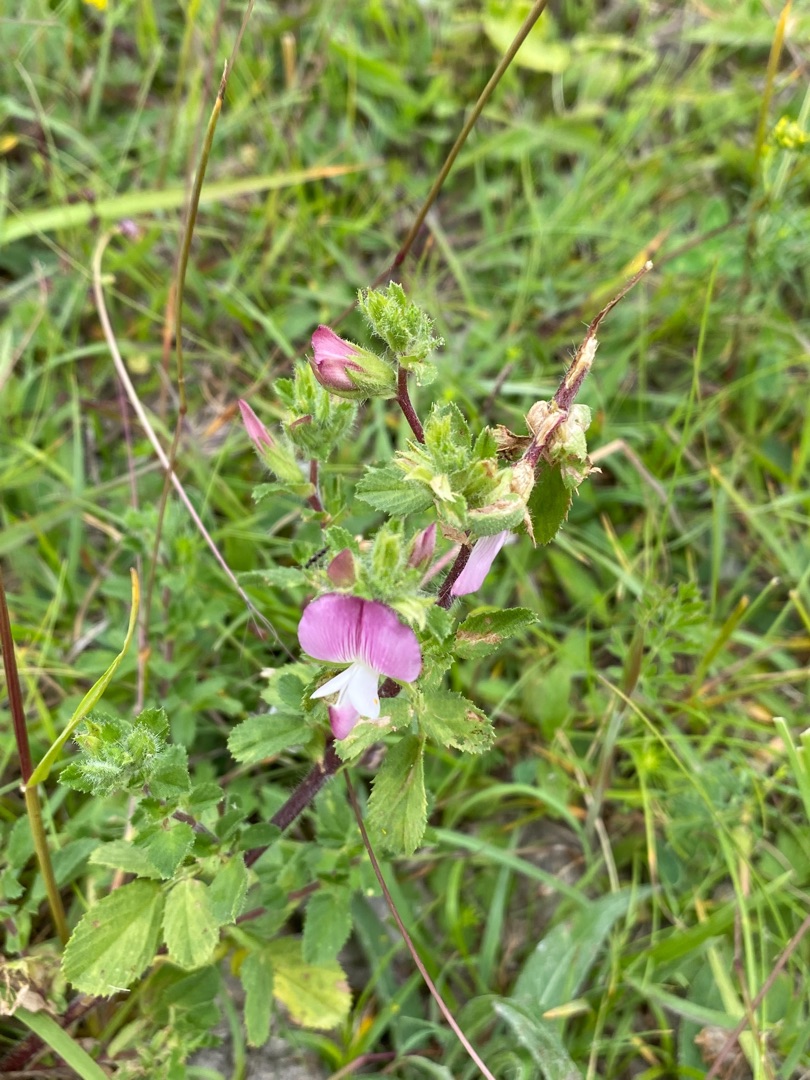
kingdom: Plantae
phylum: Tracheophyta
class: Magnoliopsida
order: Fabales
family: Fabaceae
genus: Ononis
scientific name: Ononis spinosa
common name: Mark-krageklo
